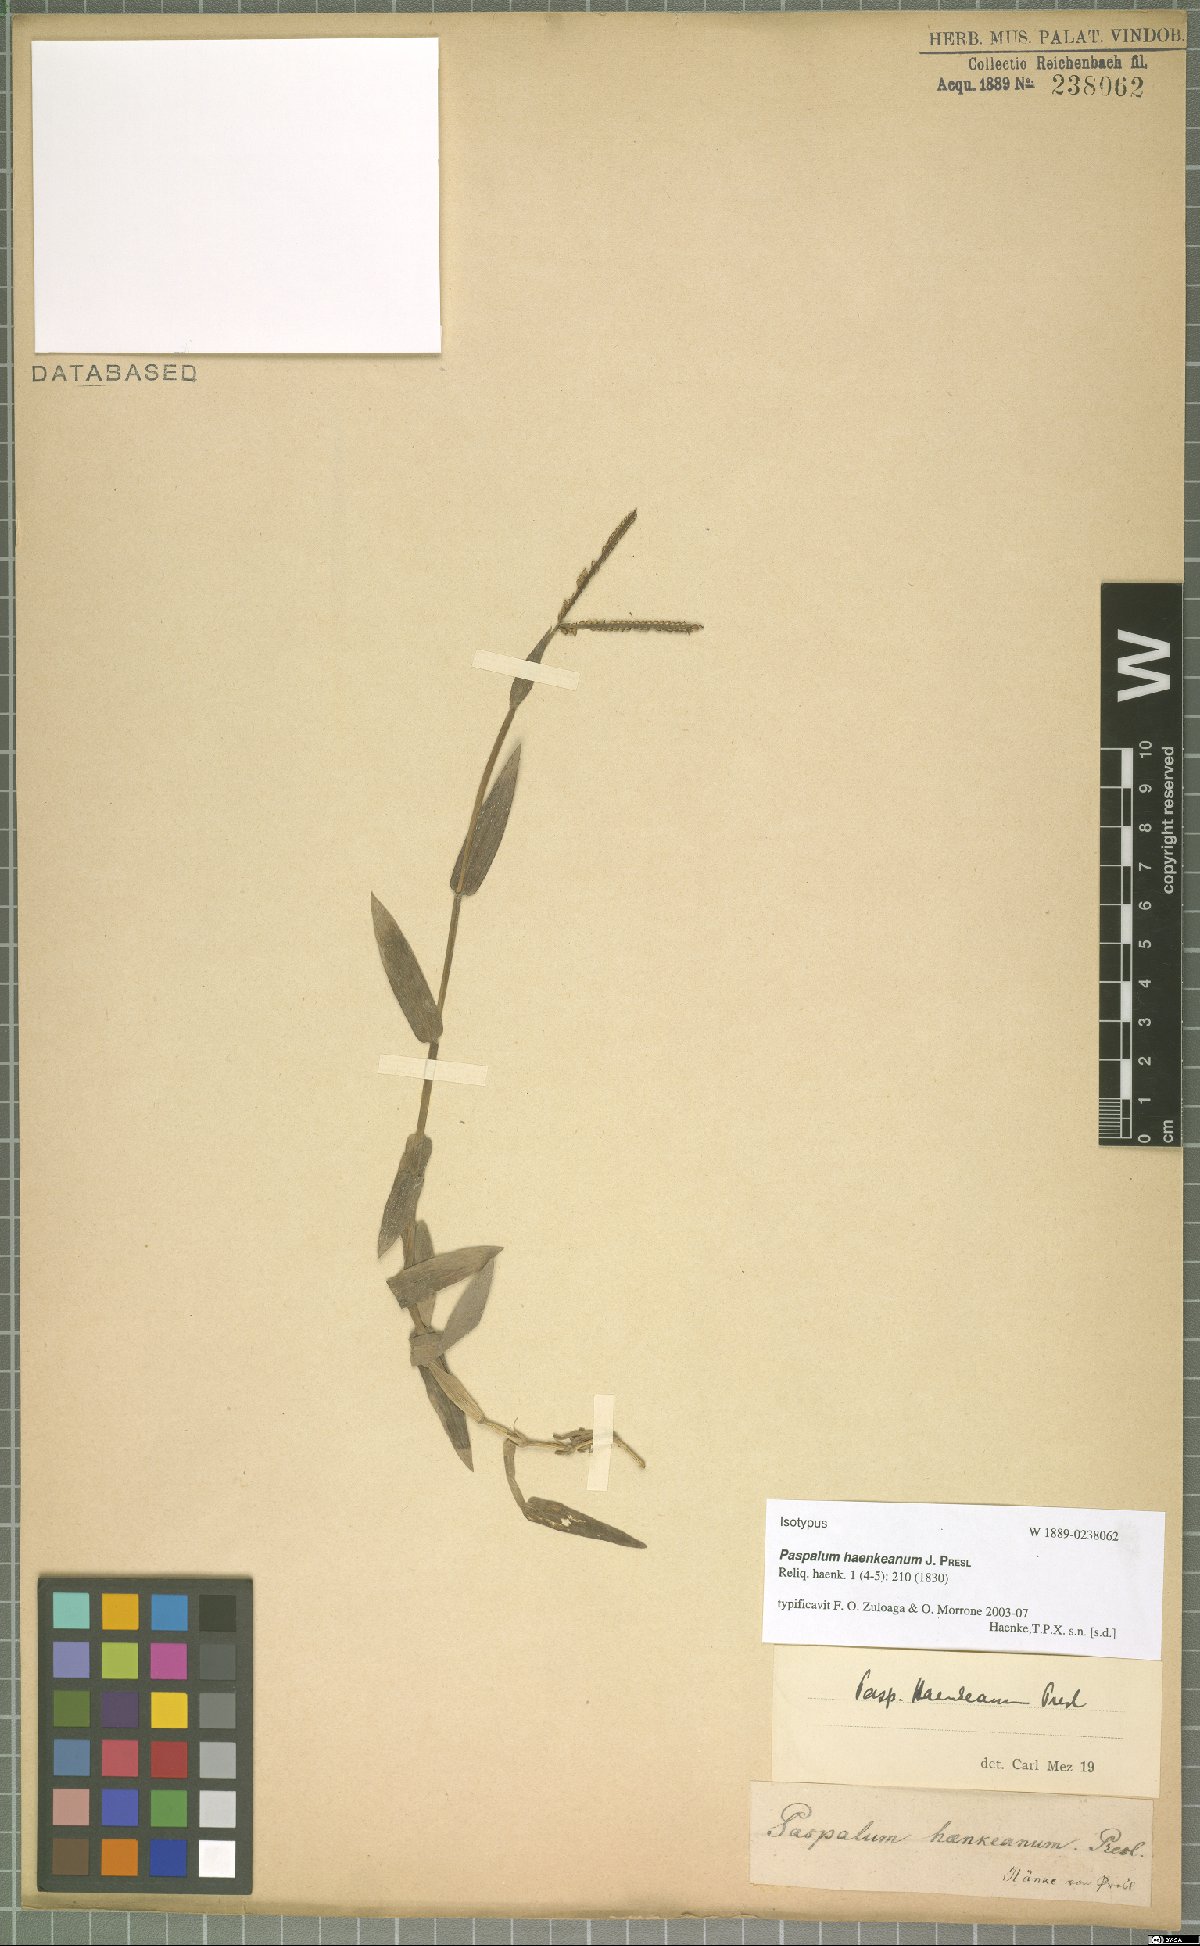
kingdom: Plantae
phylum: Tracheophyta
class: Liliopsida
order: Poales
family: Poaceae
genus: Paspalum
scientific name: Paspalum haenkeanum
